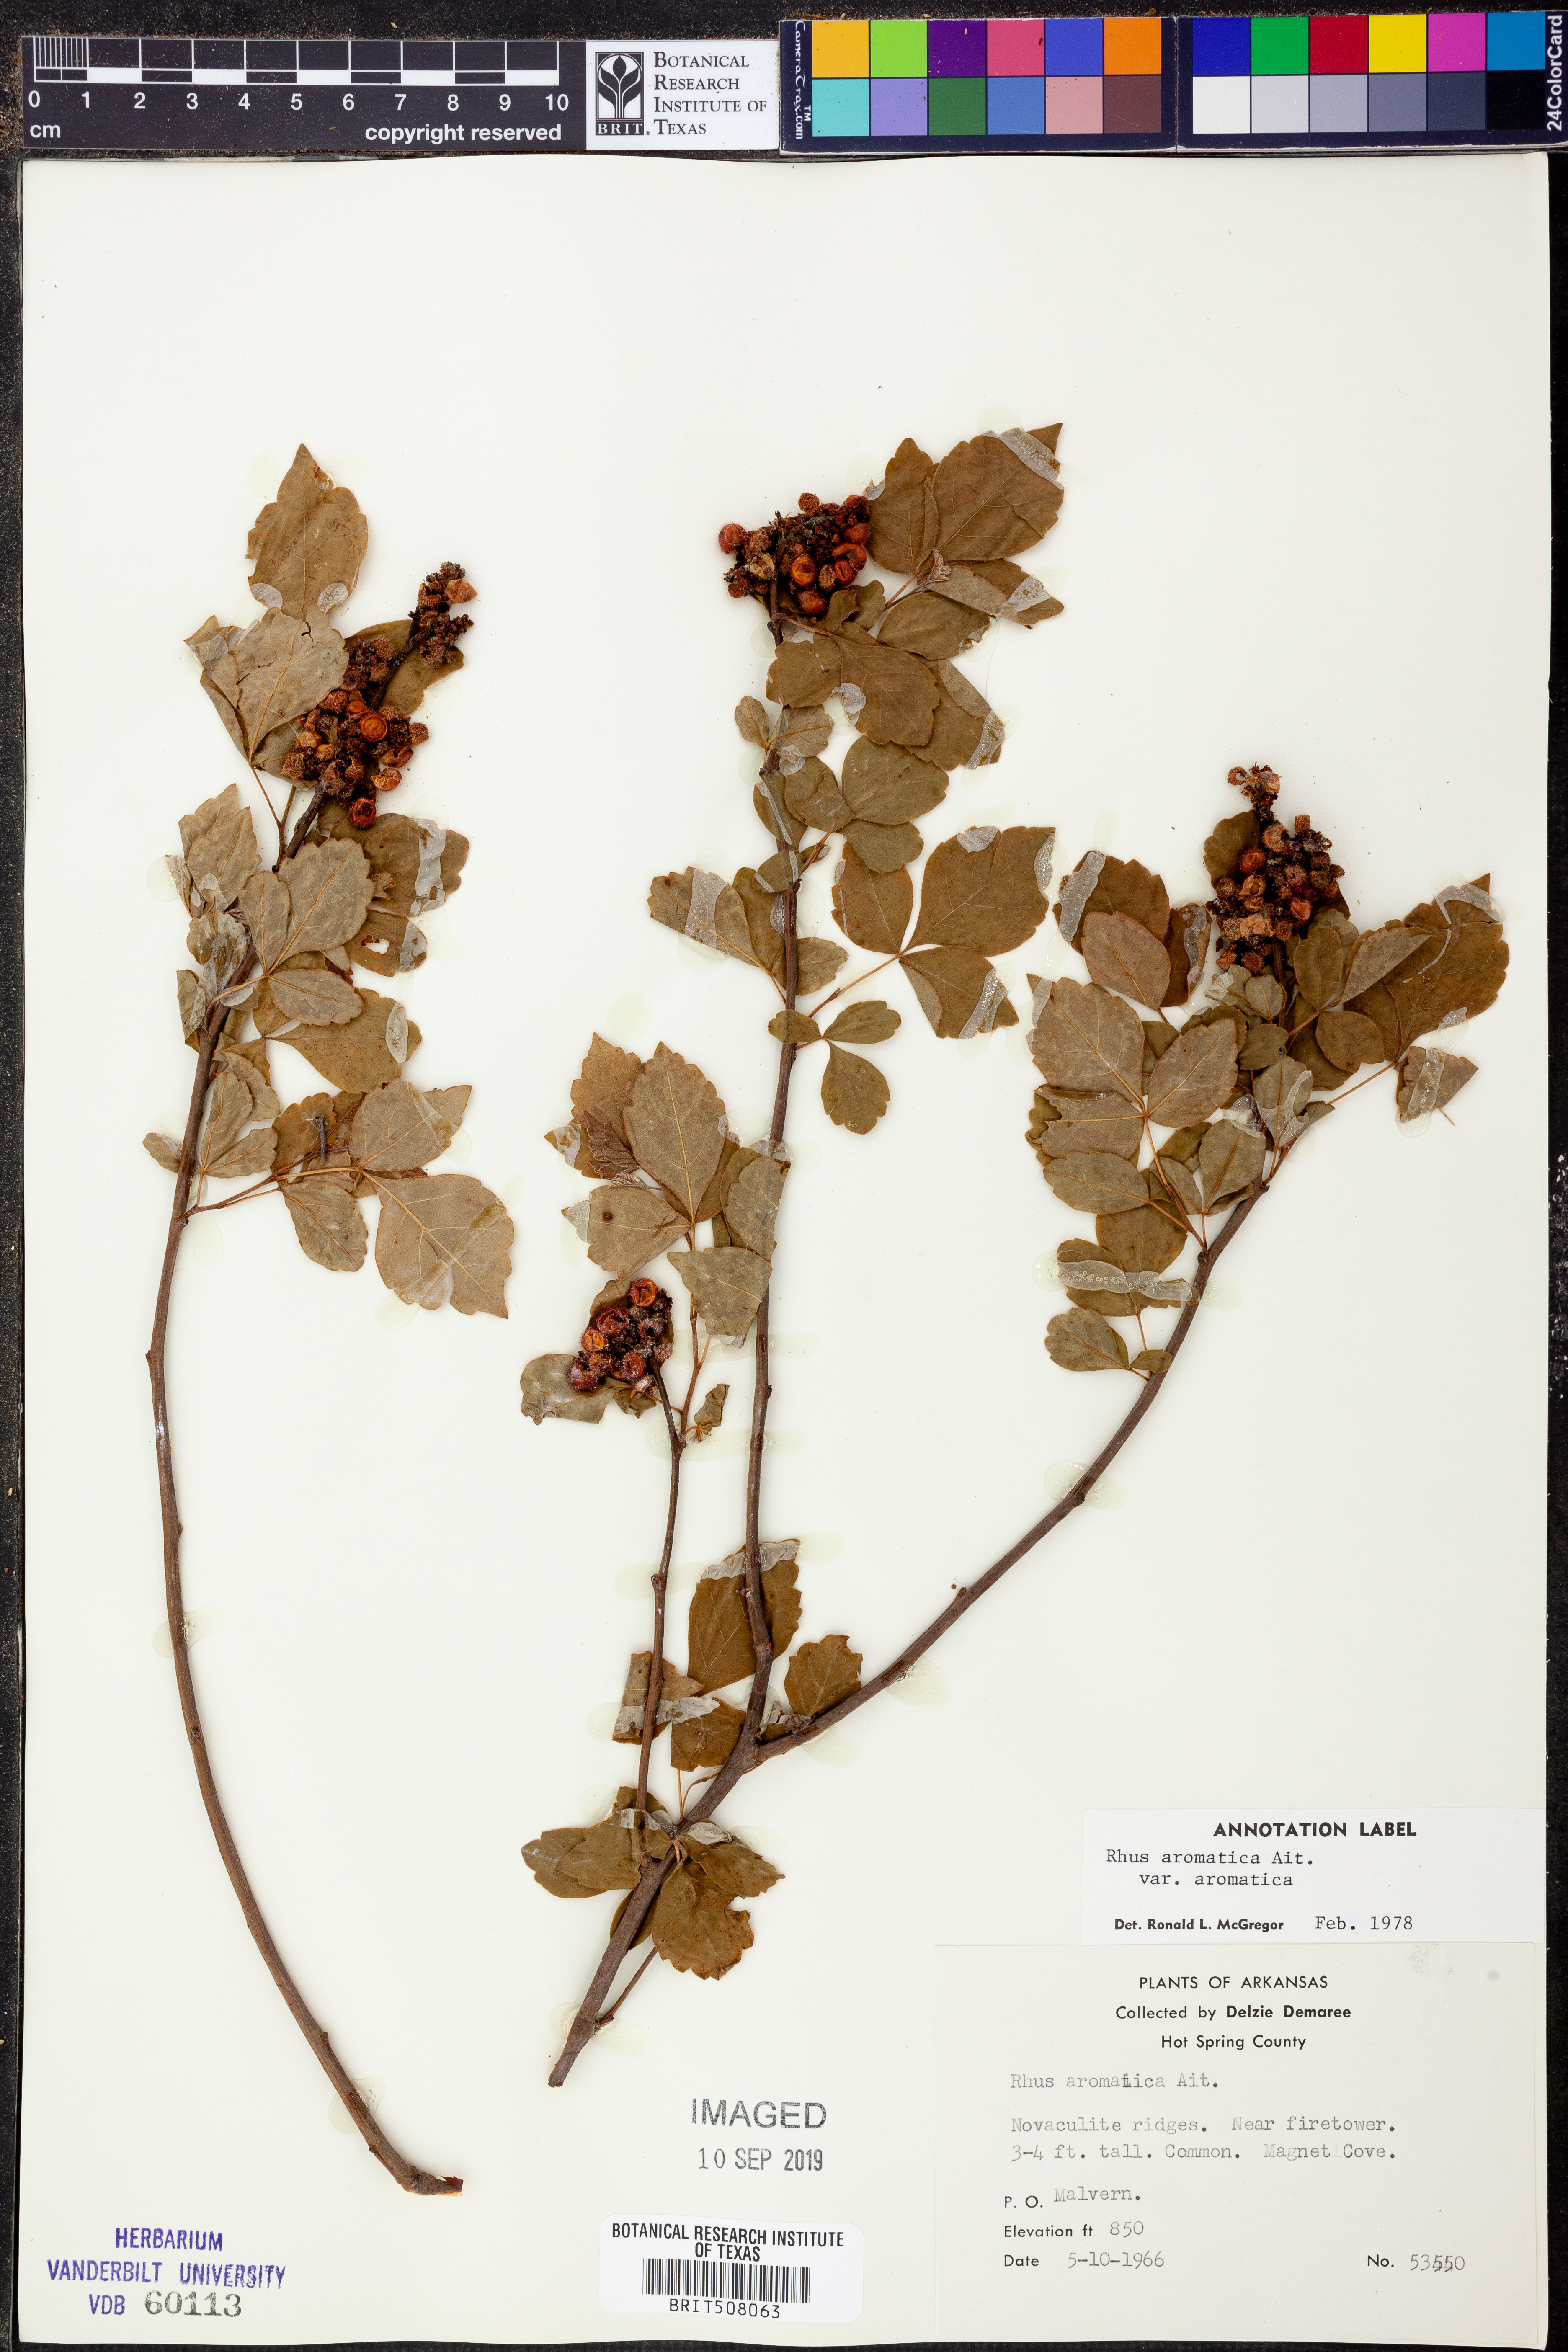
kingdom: Plantae
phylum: Tracheophyta
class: Magnoliopsida
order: Sapindales
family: Anacardiaceae
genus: Rhus
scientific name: Rhus aromatica
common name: Aromatic sumac
